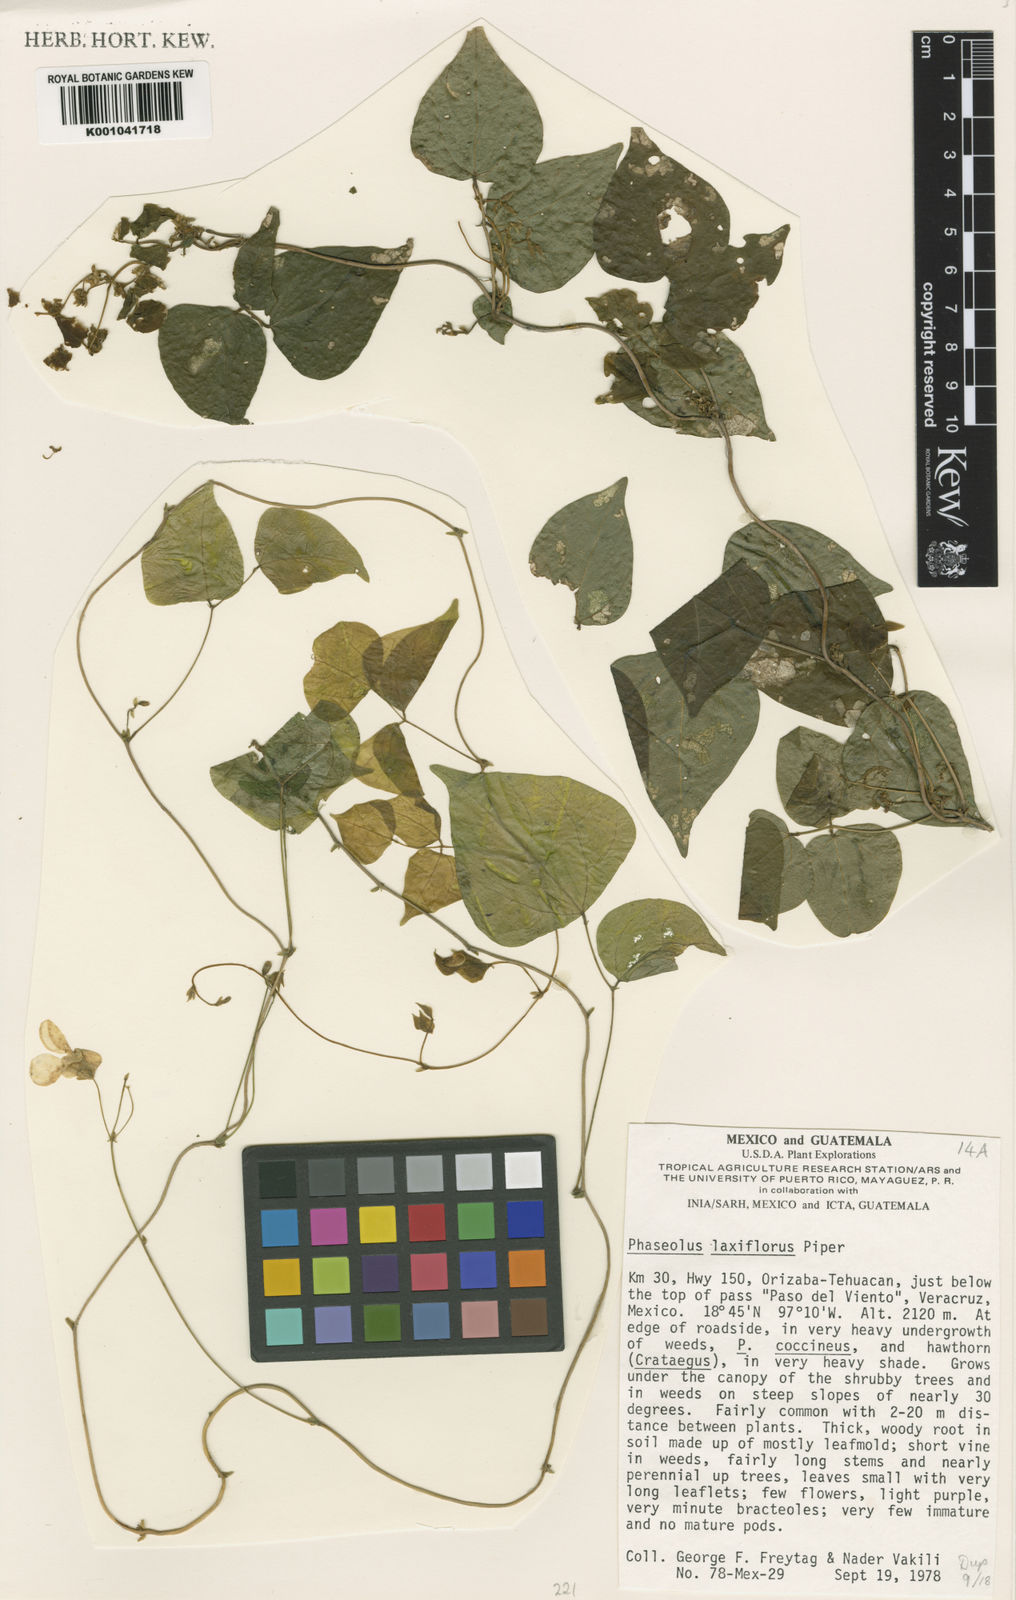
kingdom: Plantae
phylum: Tracheophyta
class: Magnoliopsida
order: Fabales
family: Fabaceae
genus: Phaseolus
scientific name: Phaseolus
